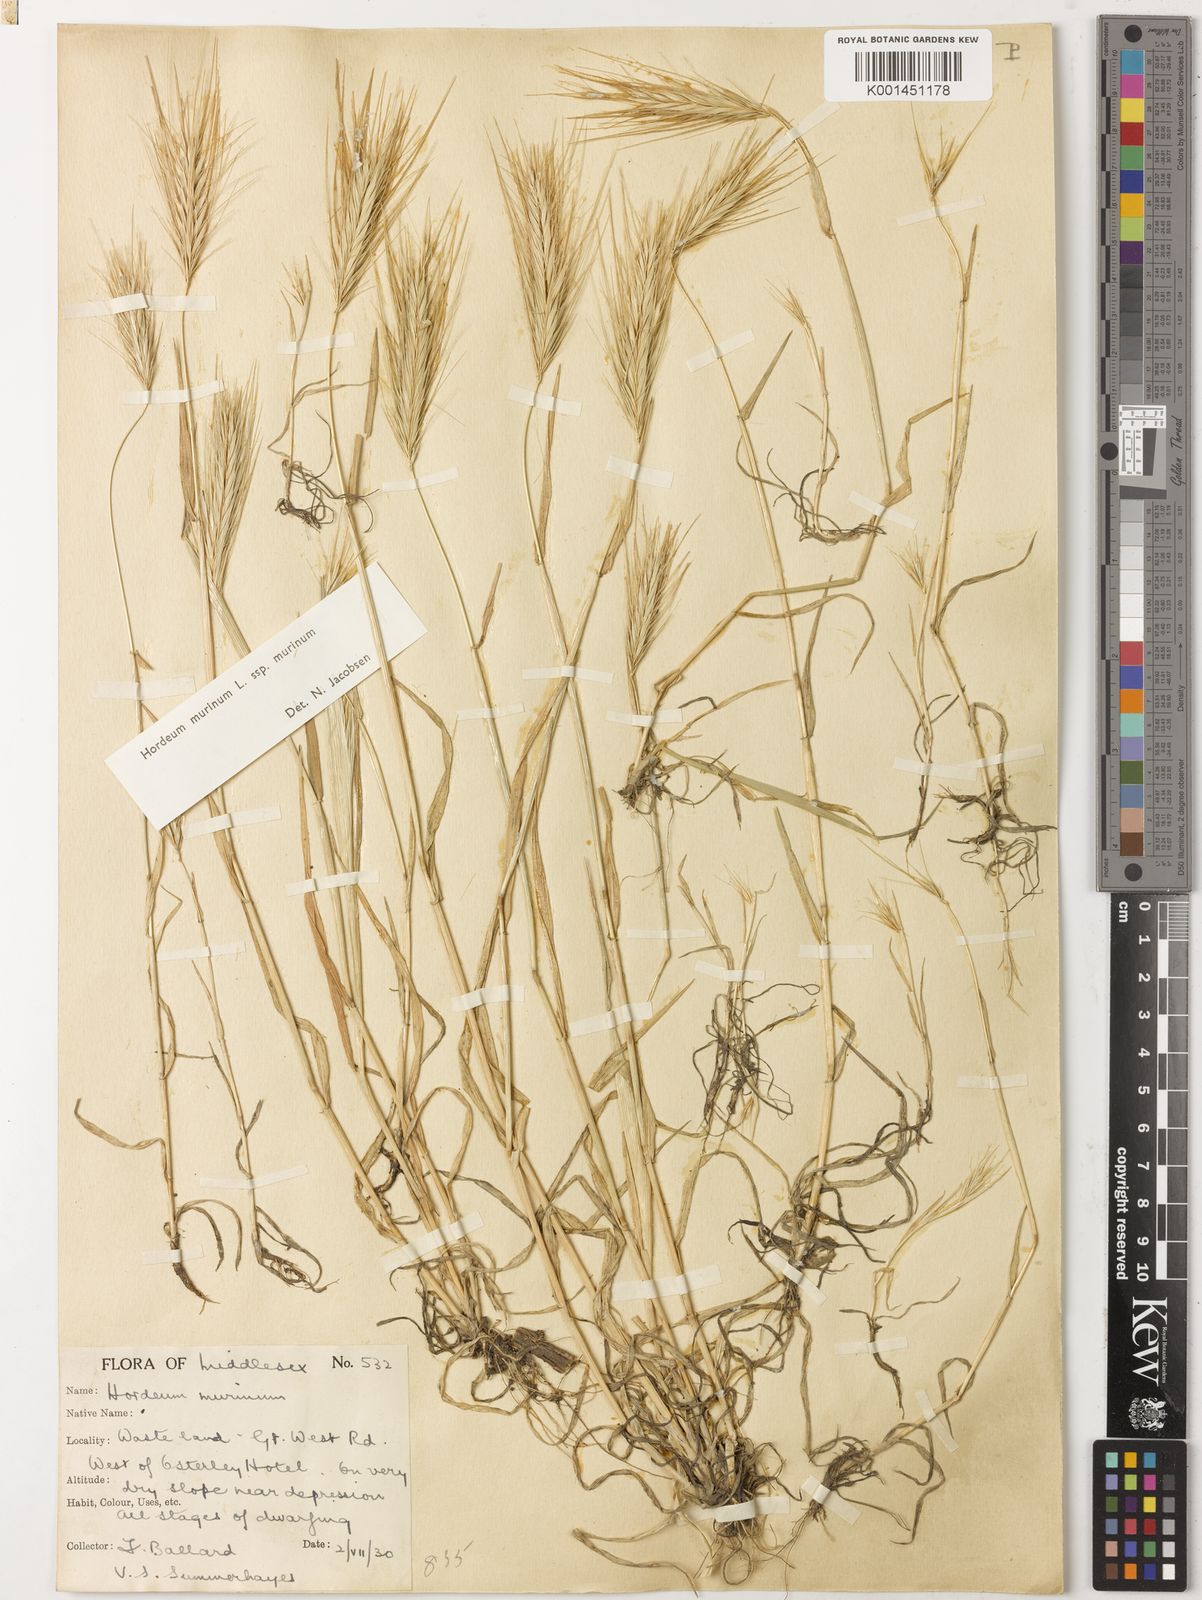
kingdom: Plantae
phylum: Tracheophyta
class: Liliopsida
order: Poales
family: Poaceae
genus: Hordeum
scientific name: Hordeum murinum
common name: Wall barley
